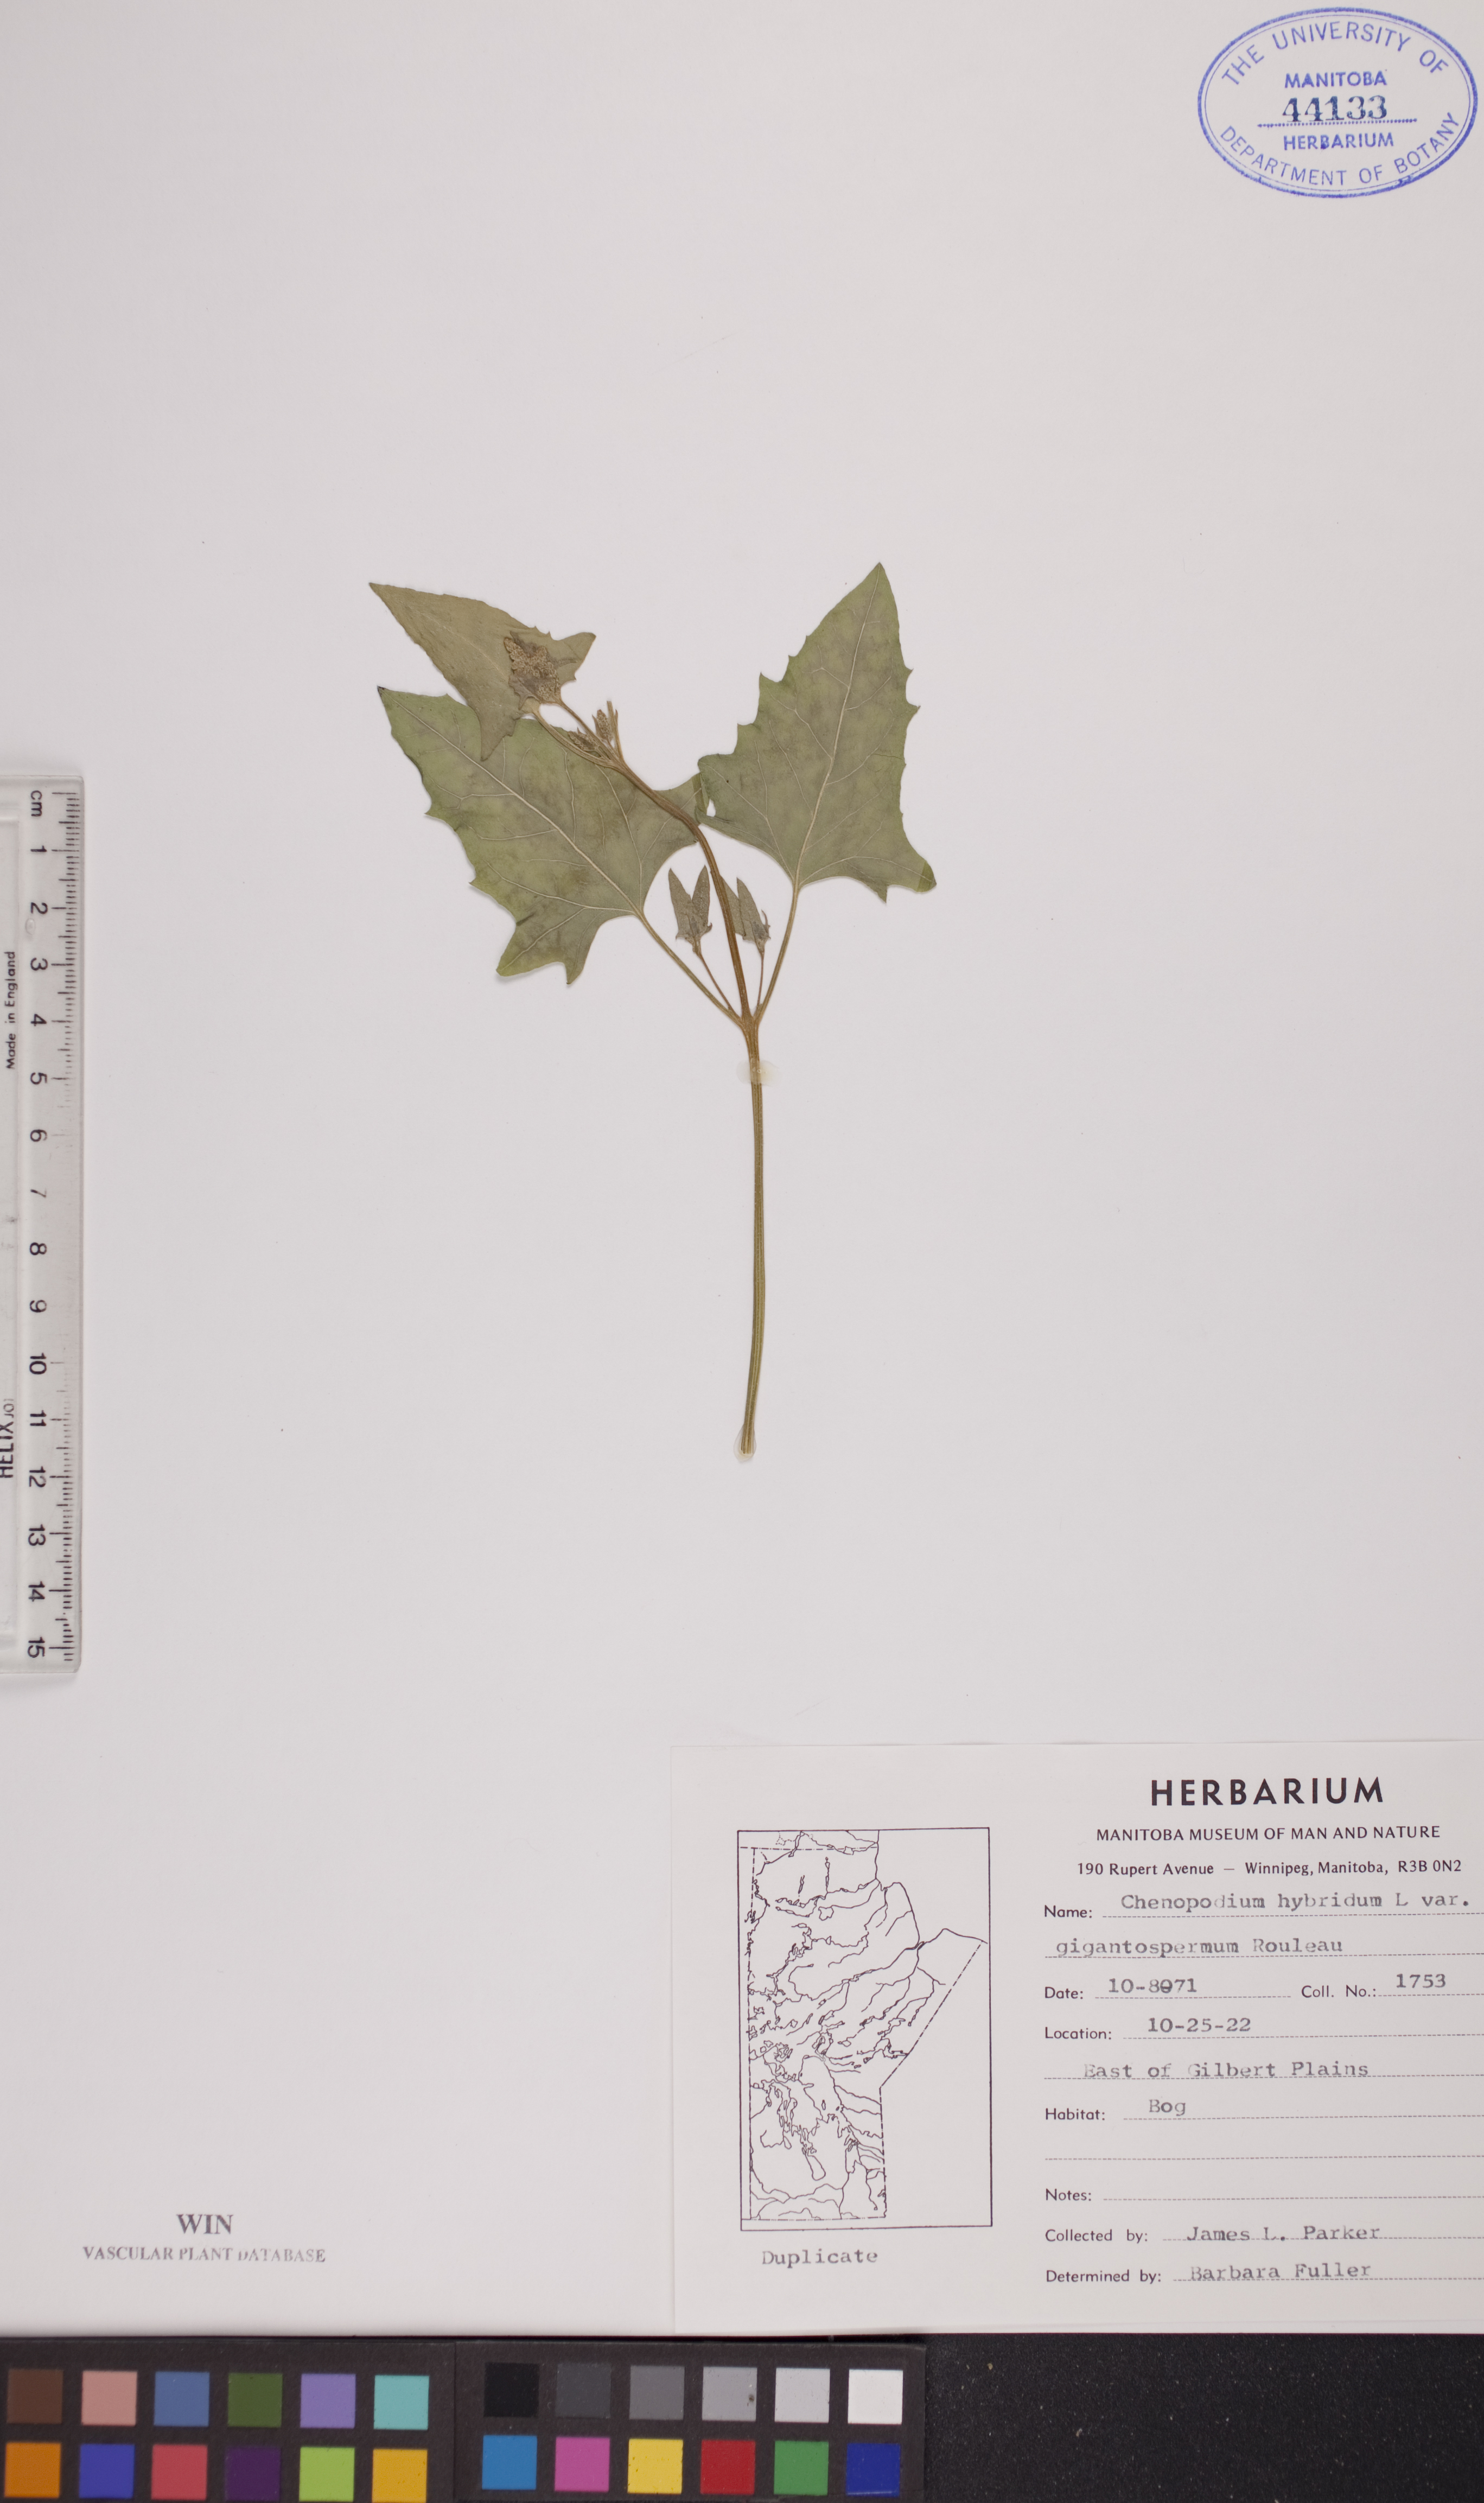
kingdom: Plantae
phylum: Tracheophyta
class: Magnoliopsida
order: Caryophyllales
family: Amaranthaceae
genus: Chenopodiastrum
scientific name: Chenopodiastrum simplex
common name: Large-seed goosefoot
